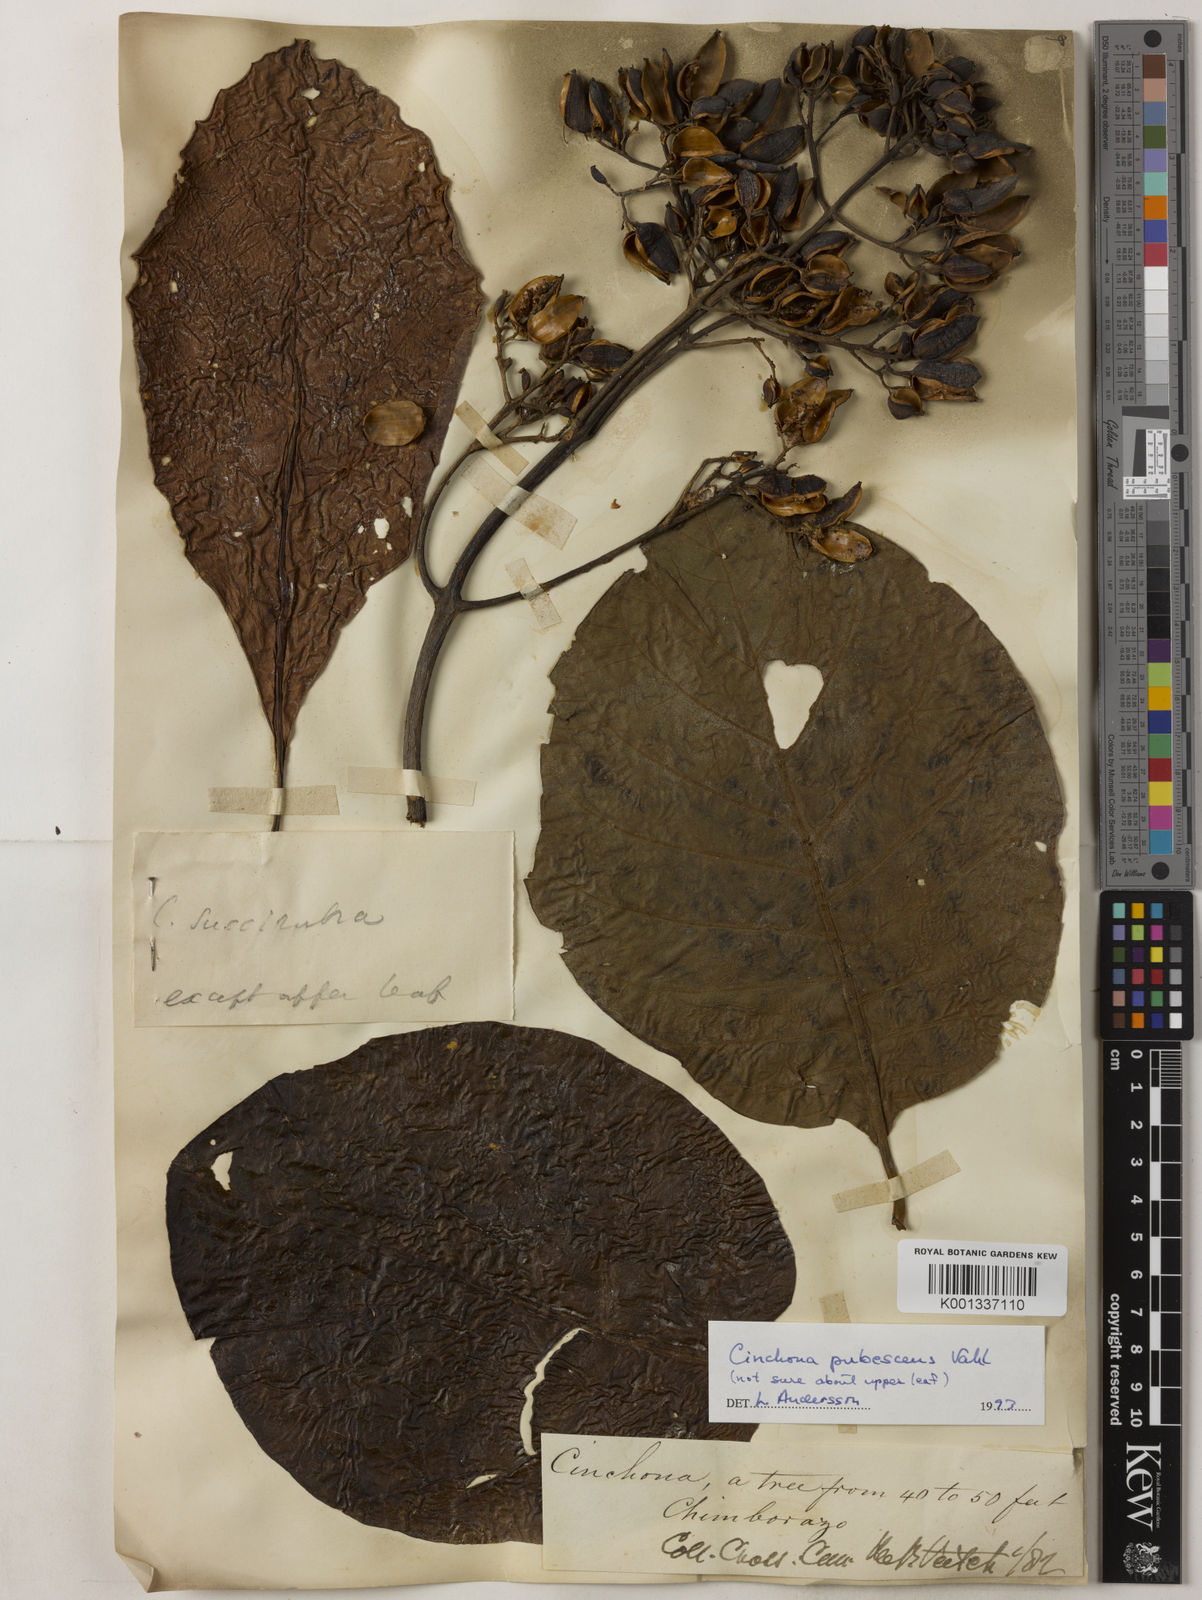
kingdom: Plantae
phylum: Tracheophyta
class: Magnoliopsida
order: Gentianales
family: Rubiaceae
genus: Cinchona
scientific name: Cinchona pubescens
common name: Quinine
